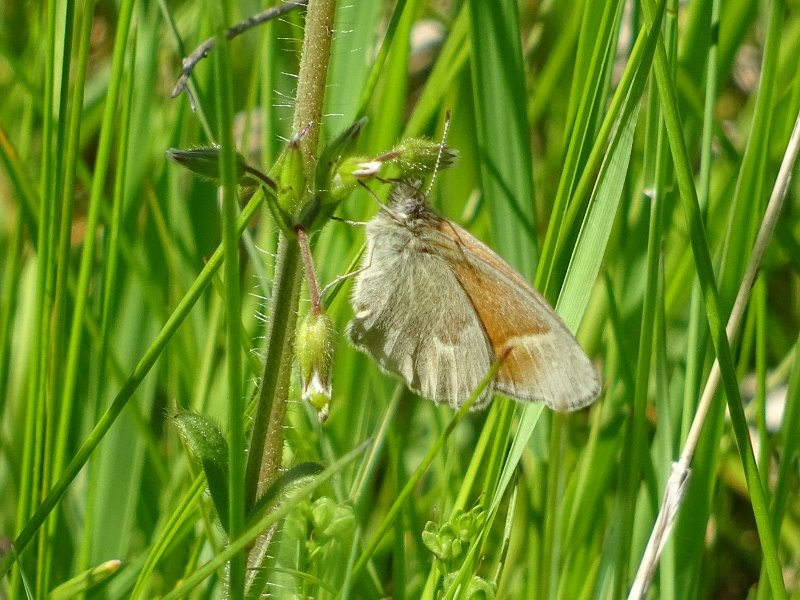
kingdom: Animalia
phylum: Arthropoda
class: Insecta
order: Lepidoptera
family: Nymphalidae
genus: Coenonympha
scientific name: Coenonympha tullia
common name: Large Heath
